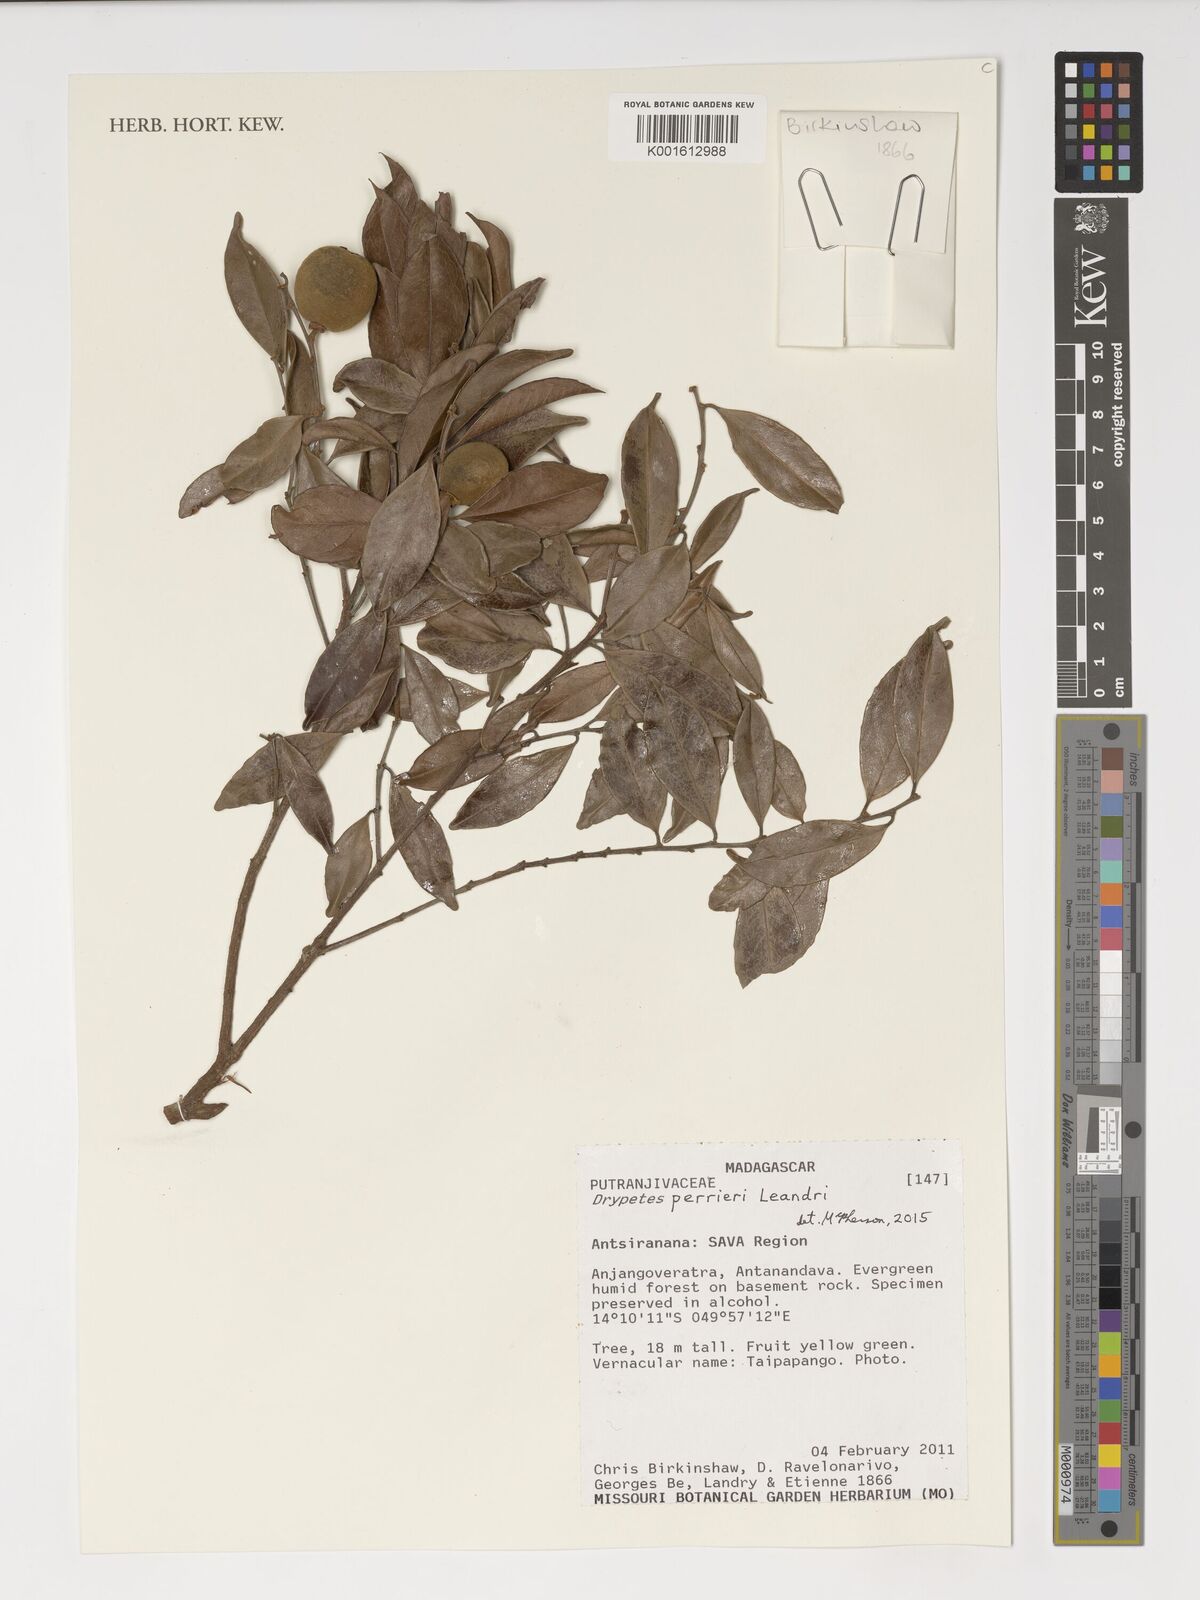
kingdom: Plantae
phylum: Tracheophyta
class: Magnoliopsida
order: Malpighiales
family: Putranjivaceae
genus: Drypetes
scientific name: Drypetes perrieri
